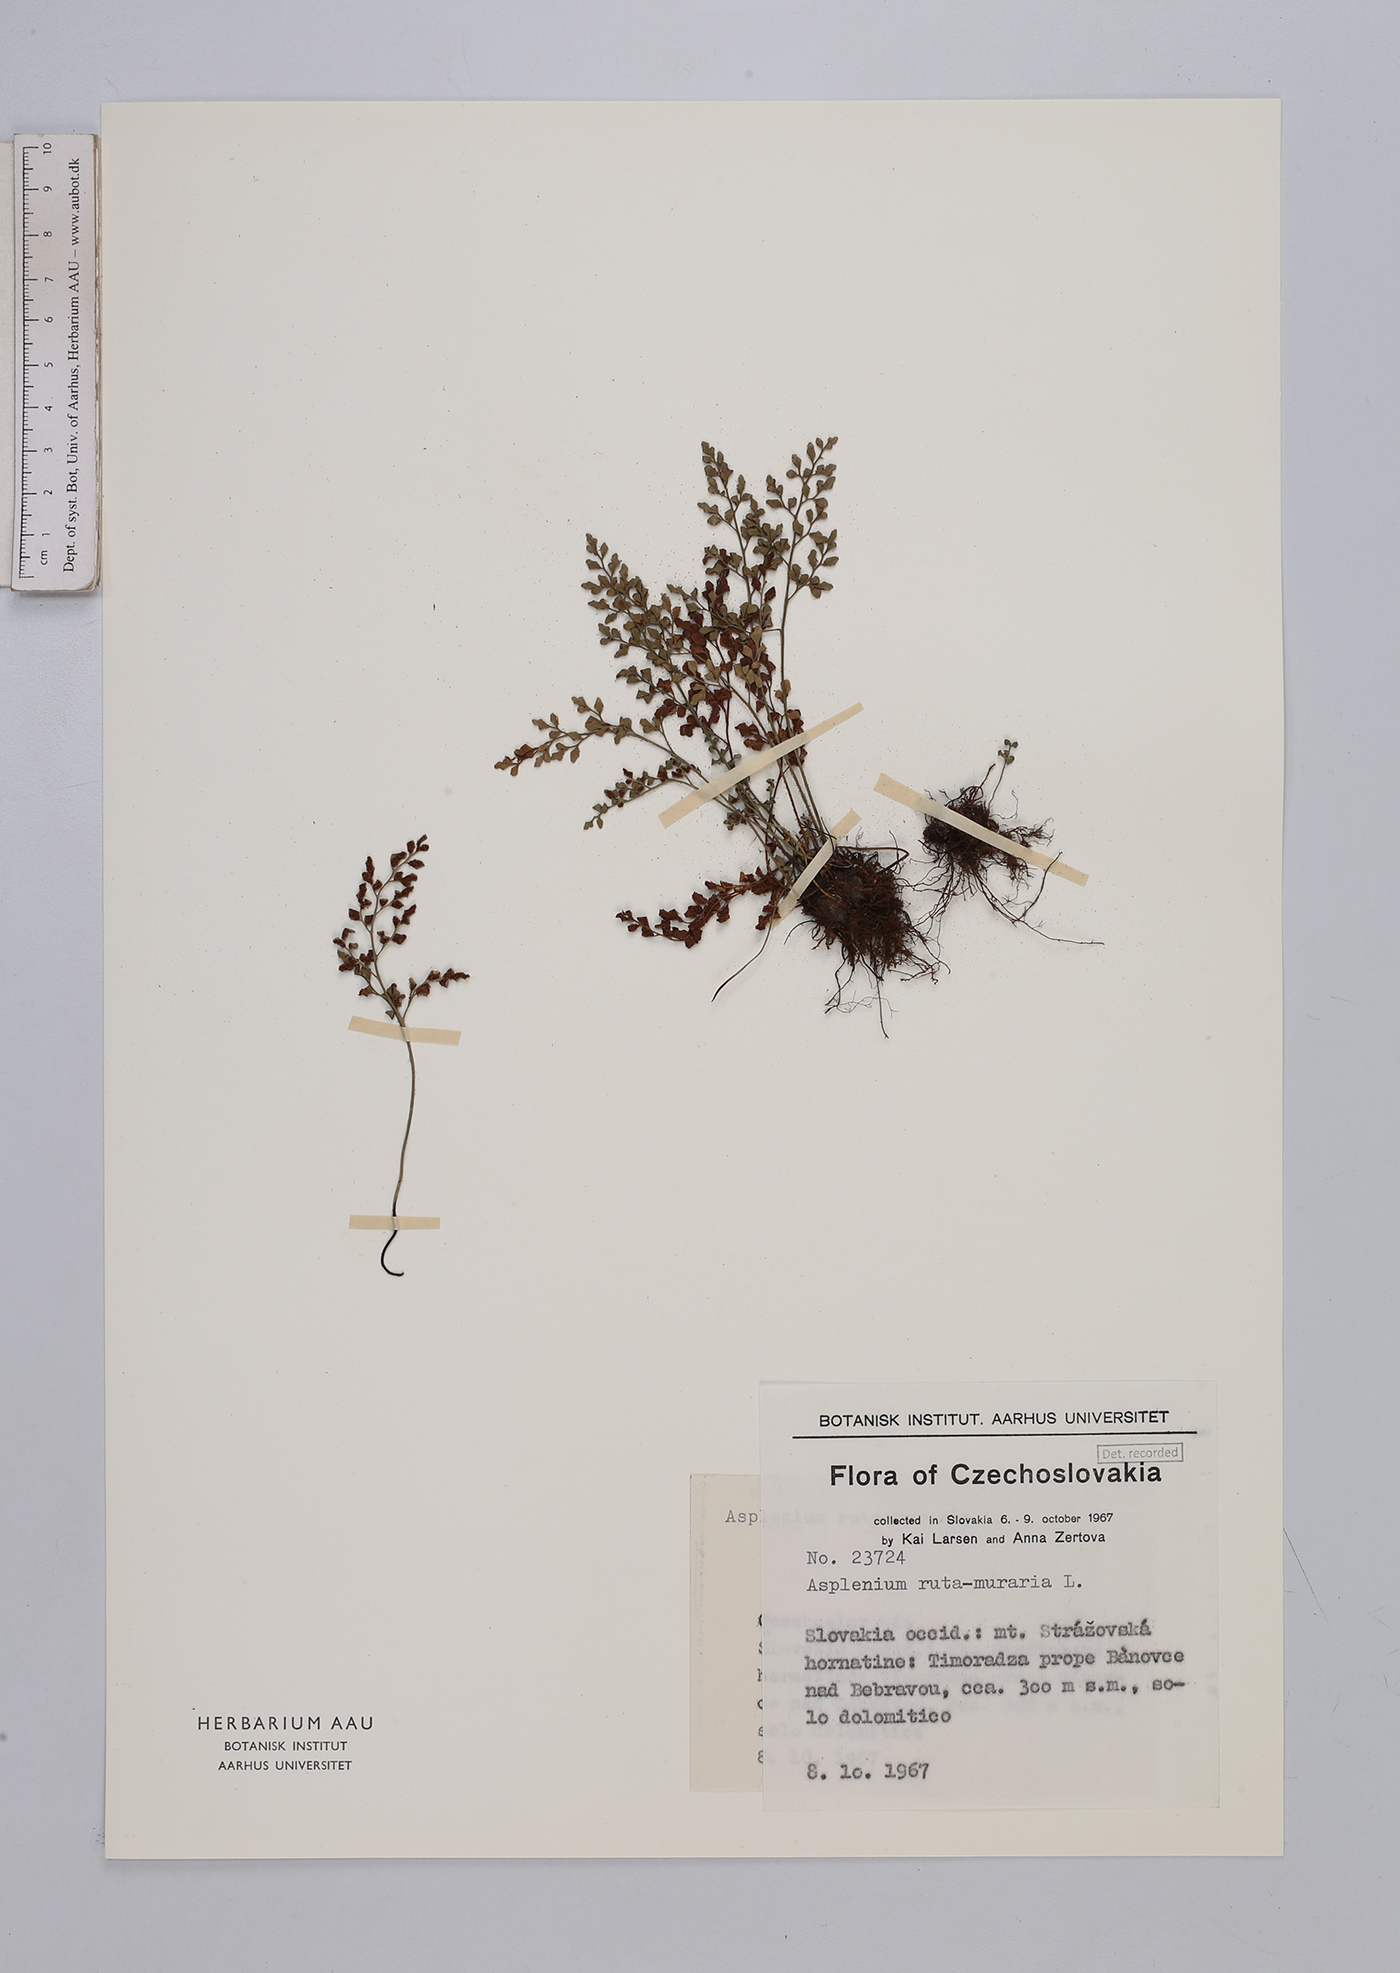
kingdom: Plantae
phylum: Tracheophyta
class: Polypodiopsida
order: Polypodiales
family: Aspleniaceae
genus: Asplenium
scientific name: Asplenium ruta-muraria
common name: Wall-rue
